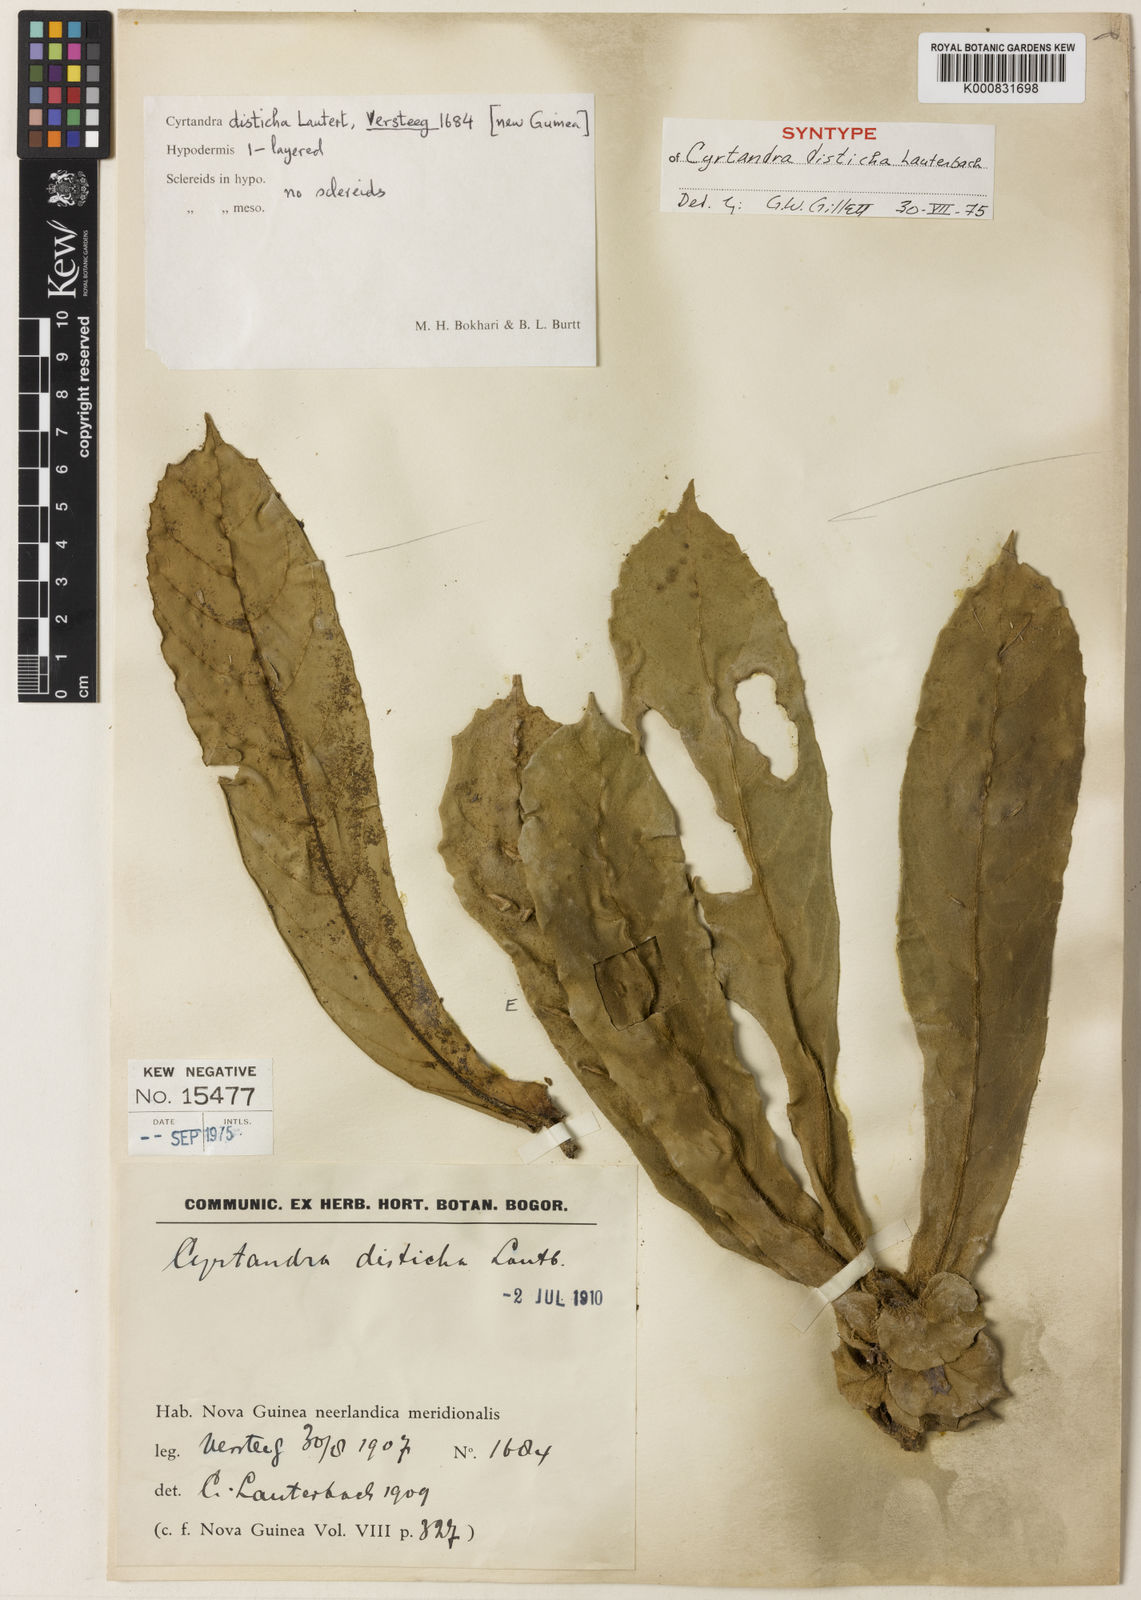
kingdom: Plantae
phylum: Tracheophyta
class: Magnoliopsida
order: Lamiales
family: Gesneriaceae
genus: Cyrtandra
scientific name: Cyrtandra disticha
